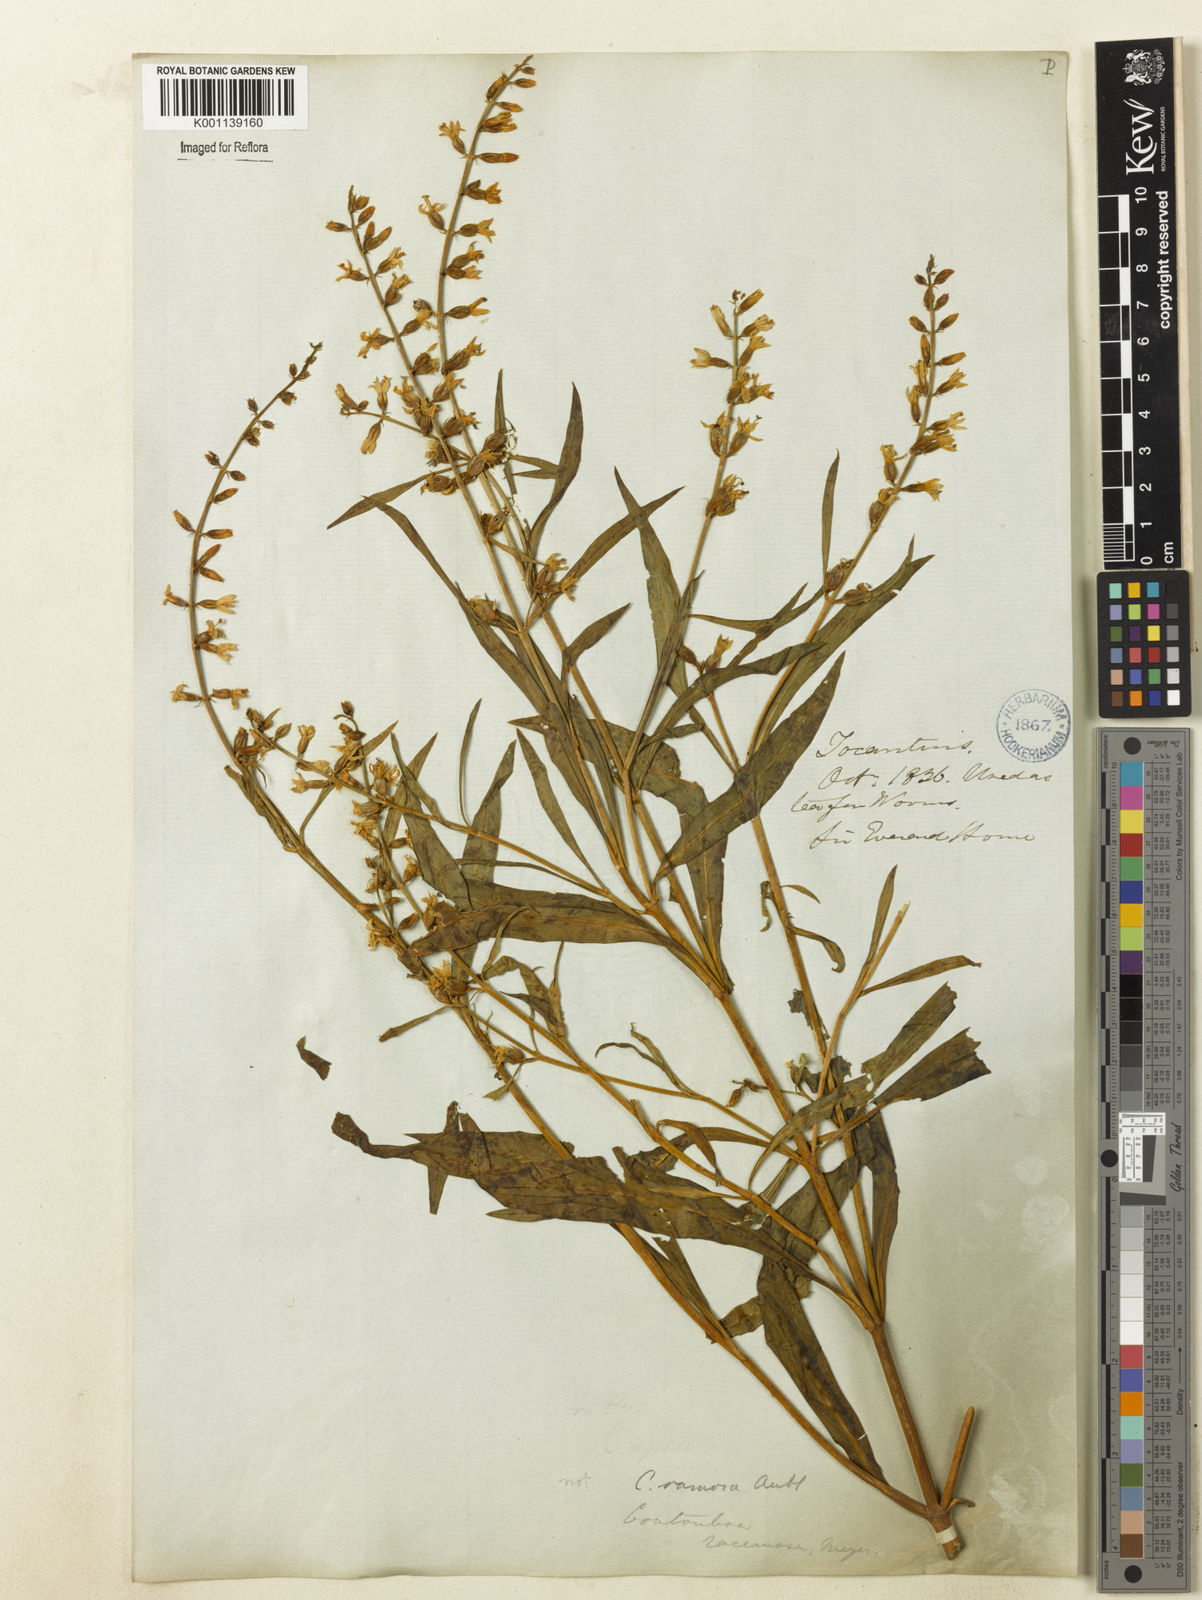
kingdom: Plantae
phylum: Tracheophyta
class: Magnoliopsida
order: Gentianales
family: Gentianaceae
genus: Coutoubea
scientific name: Coutoubea ramosa
